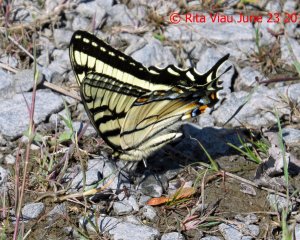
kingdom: Animalia
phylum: Arthropoda
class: Insecta
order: Lepidoptera
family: Papilionidae
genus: Pterourus
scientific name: Pterourus canadensis
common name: Canadian Tiger Swallowtail
